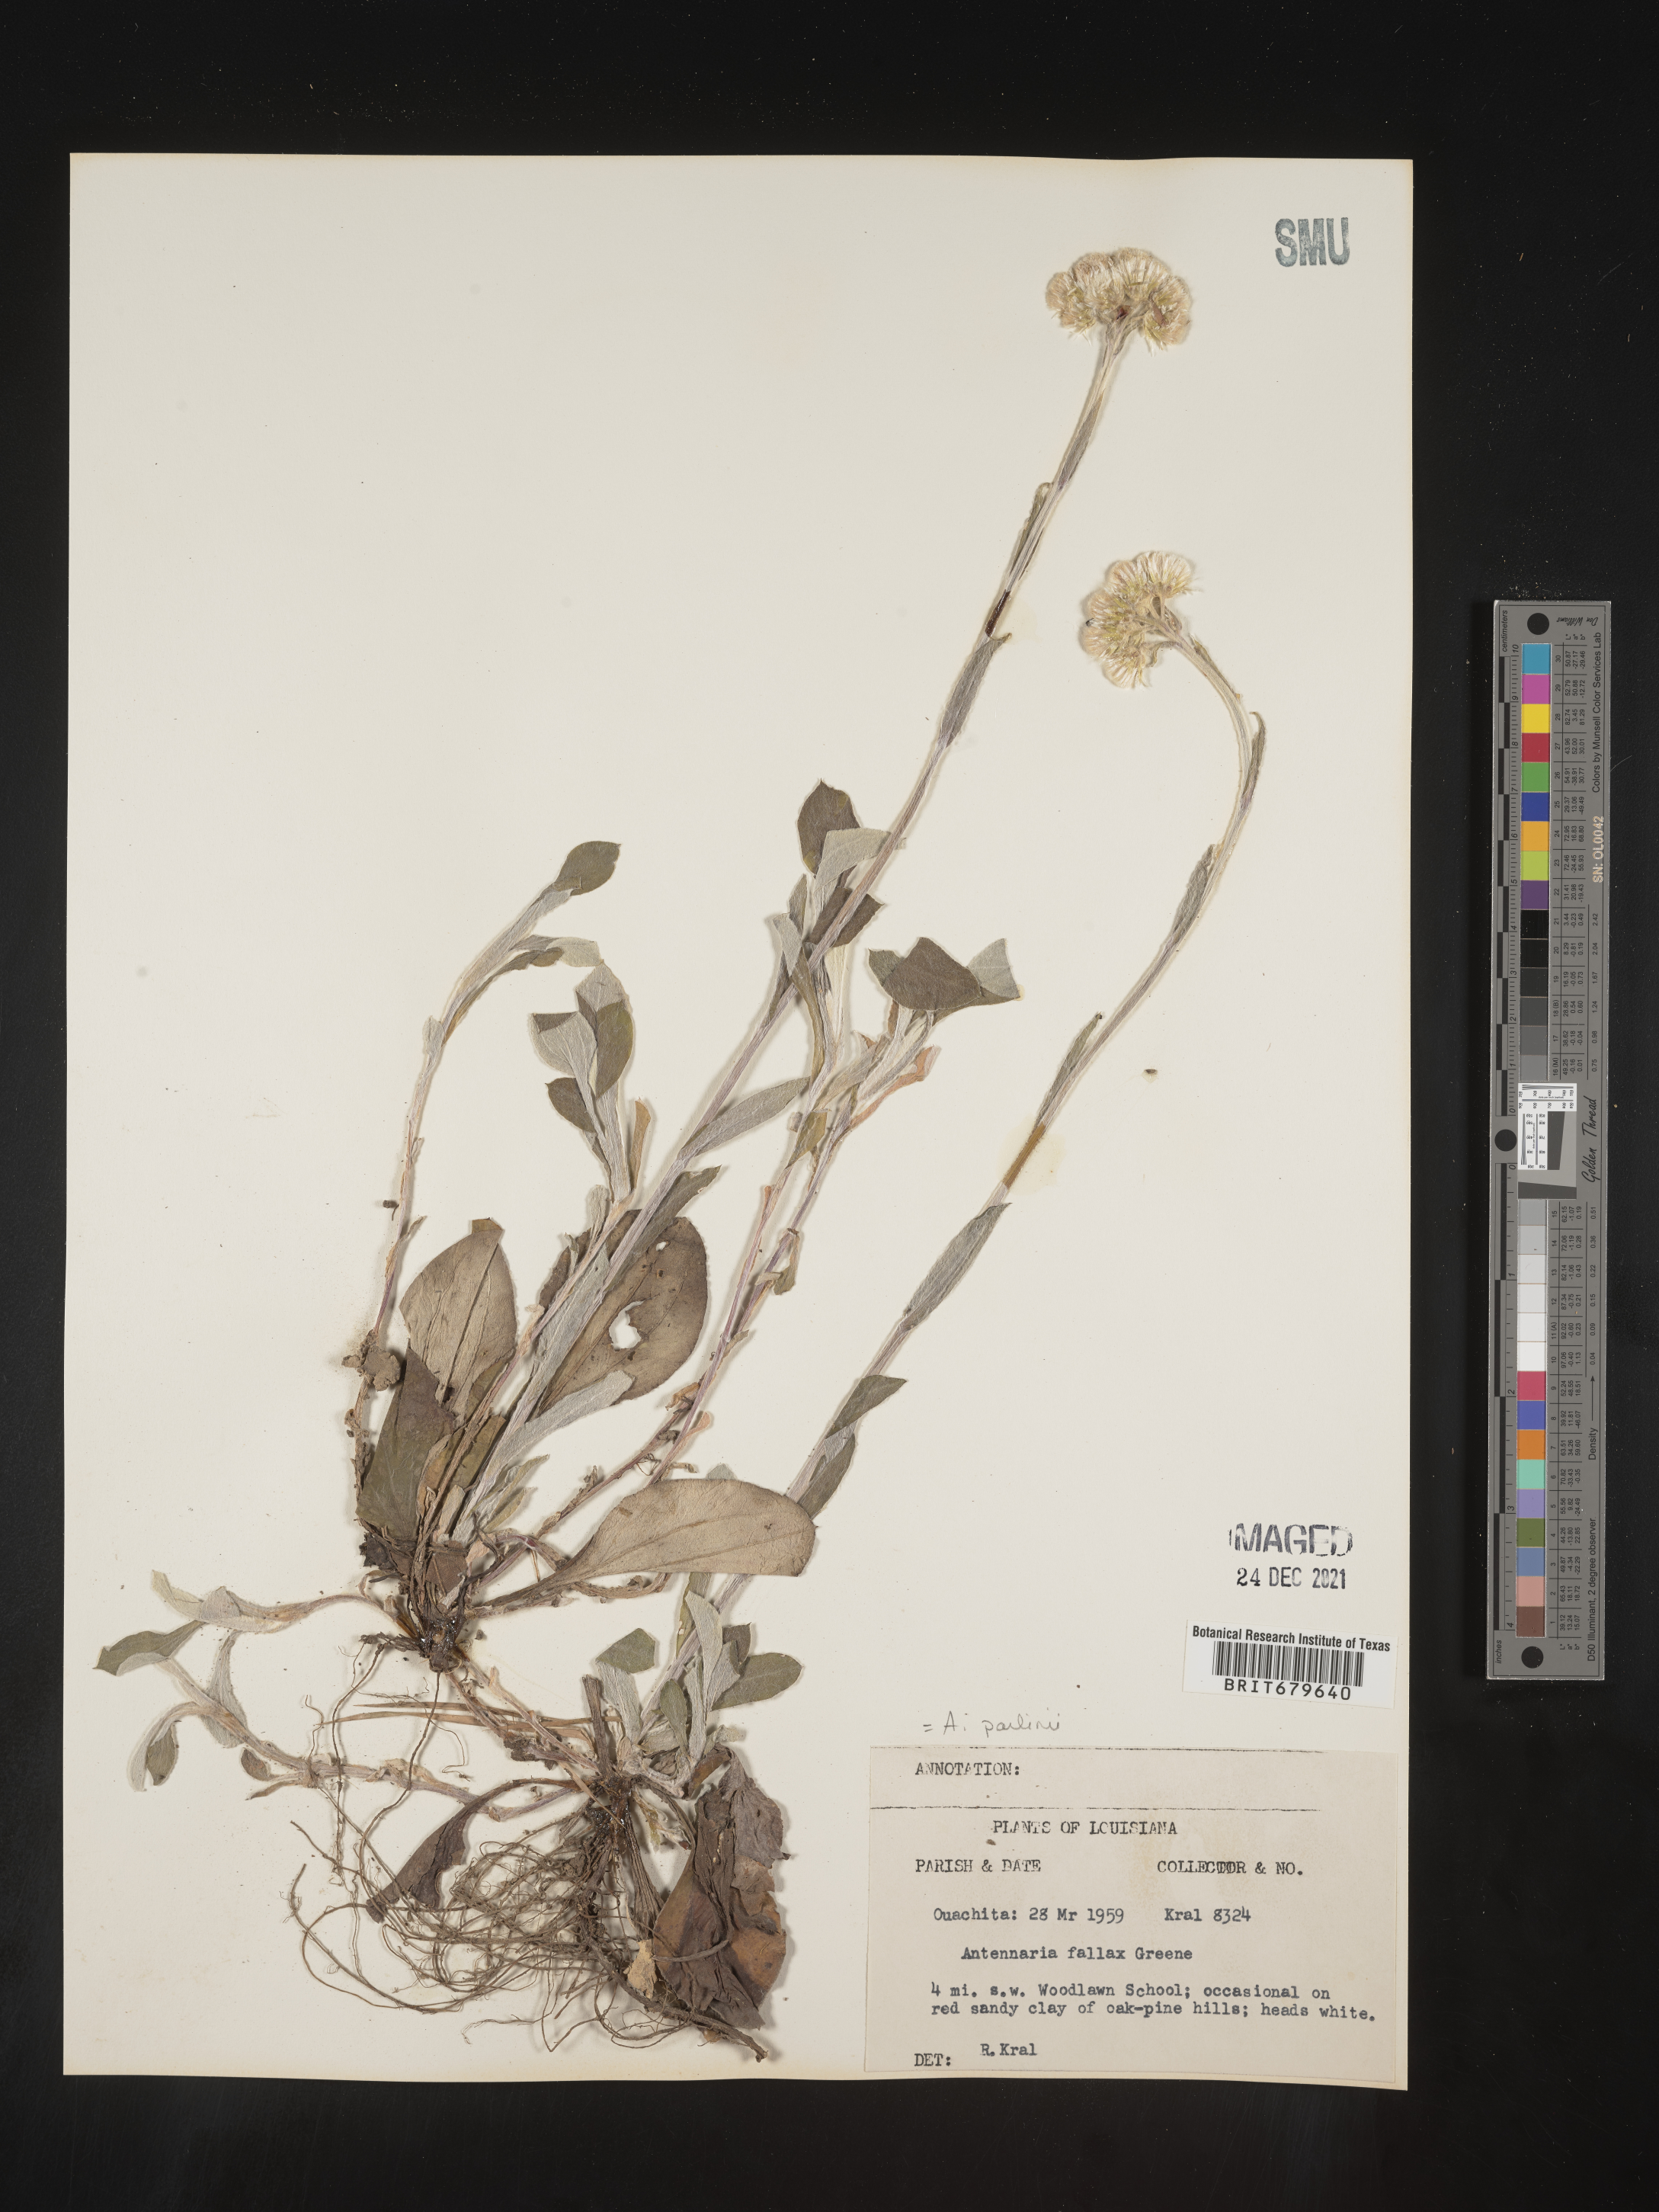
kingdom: Plantae
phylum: Tracheophyta
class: Magnoliopsida
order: Asterales
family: Asteraceae
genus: Antennaria
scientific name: Antennaria parlinii
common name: Parlin's pussytoes
